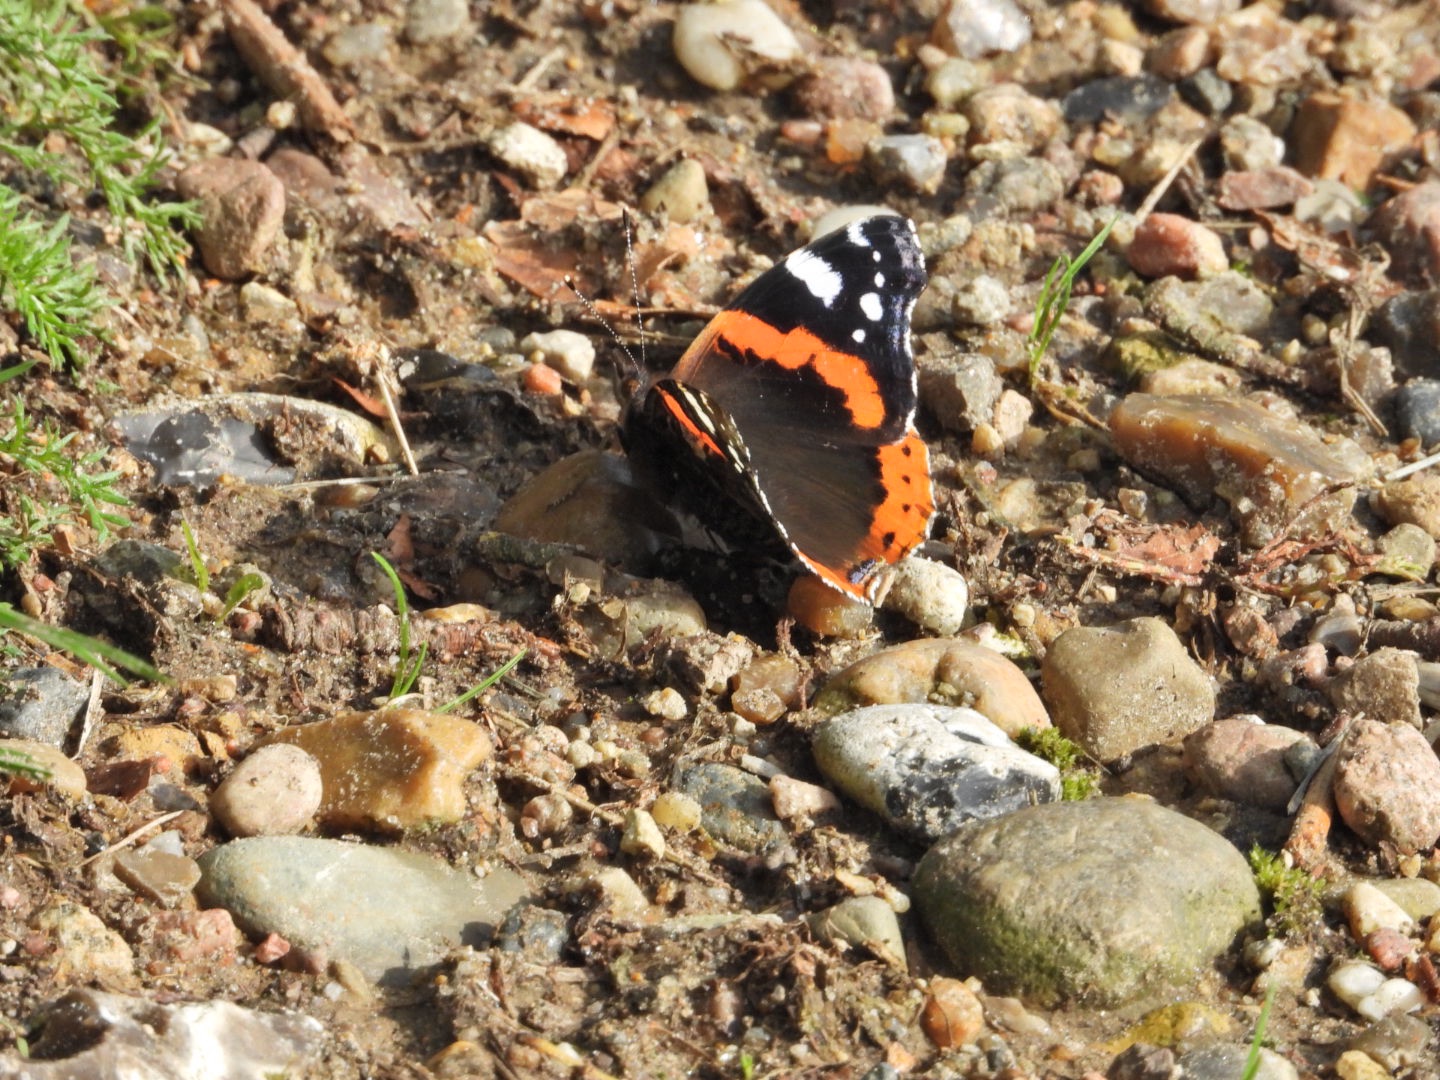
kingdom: Animalia
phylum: Arthropoda
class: Insecta
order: Lepidoptera
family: Nymphalidae
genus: Vanessa
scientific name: Vanessa atalanta
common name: Admiral
